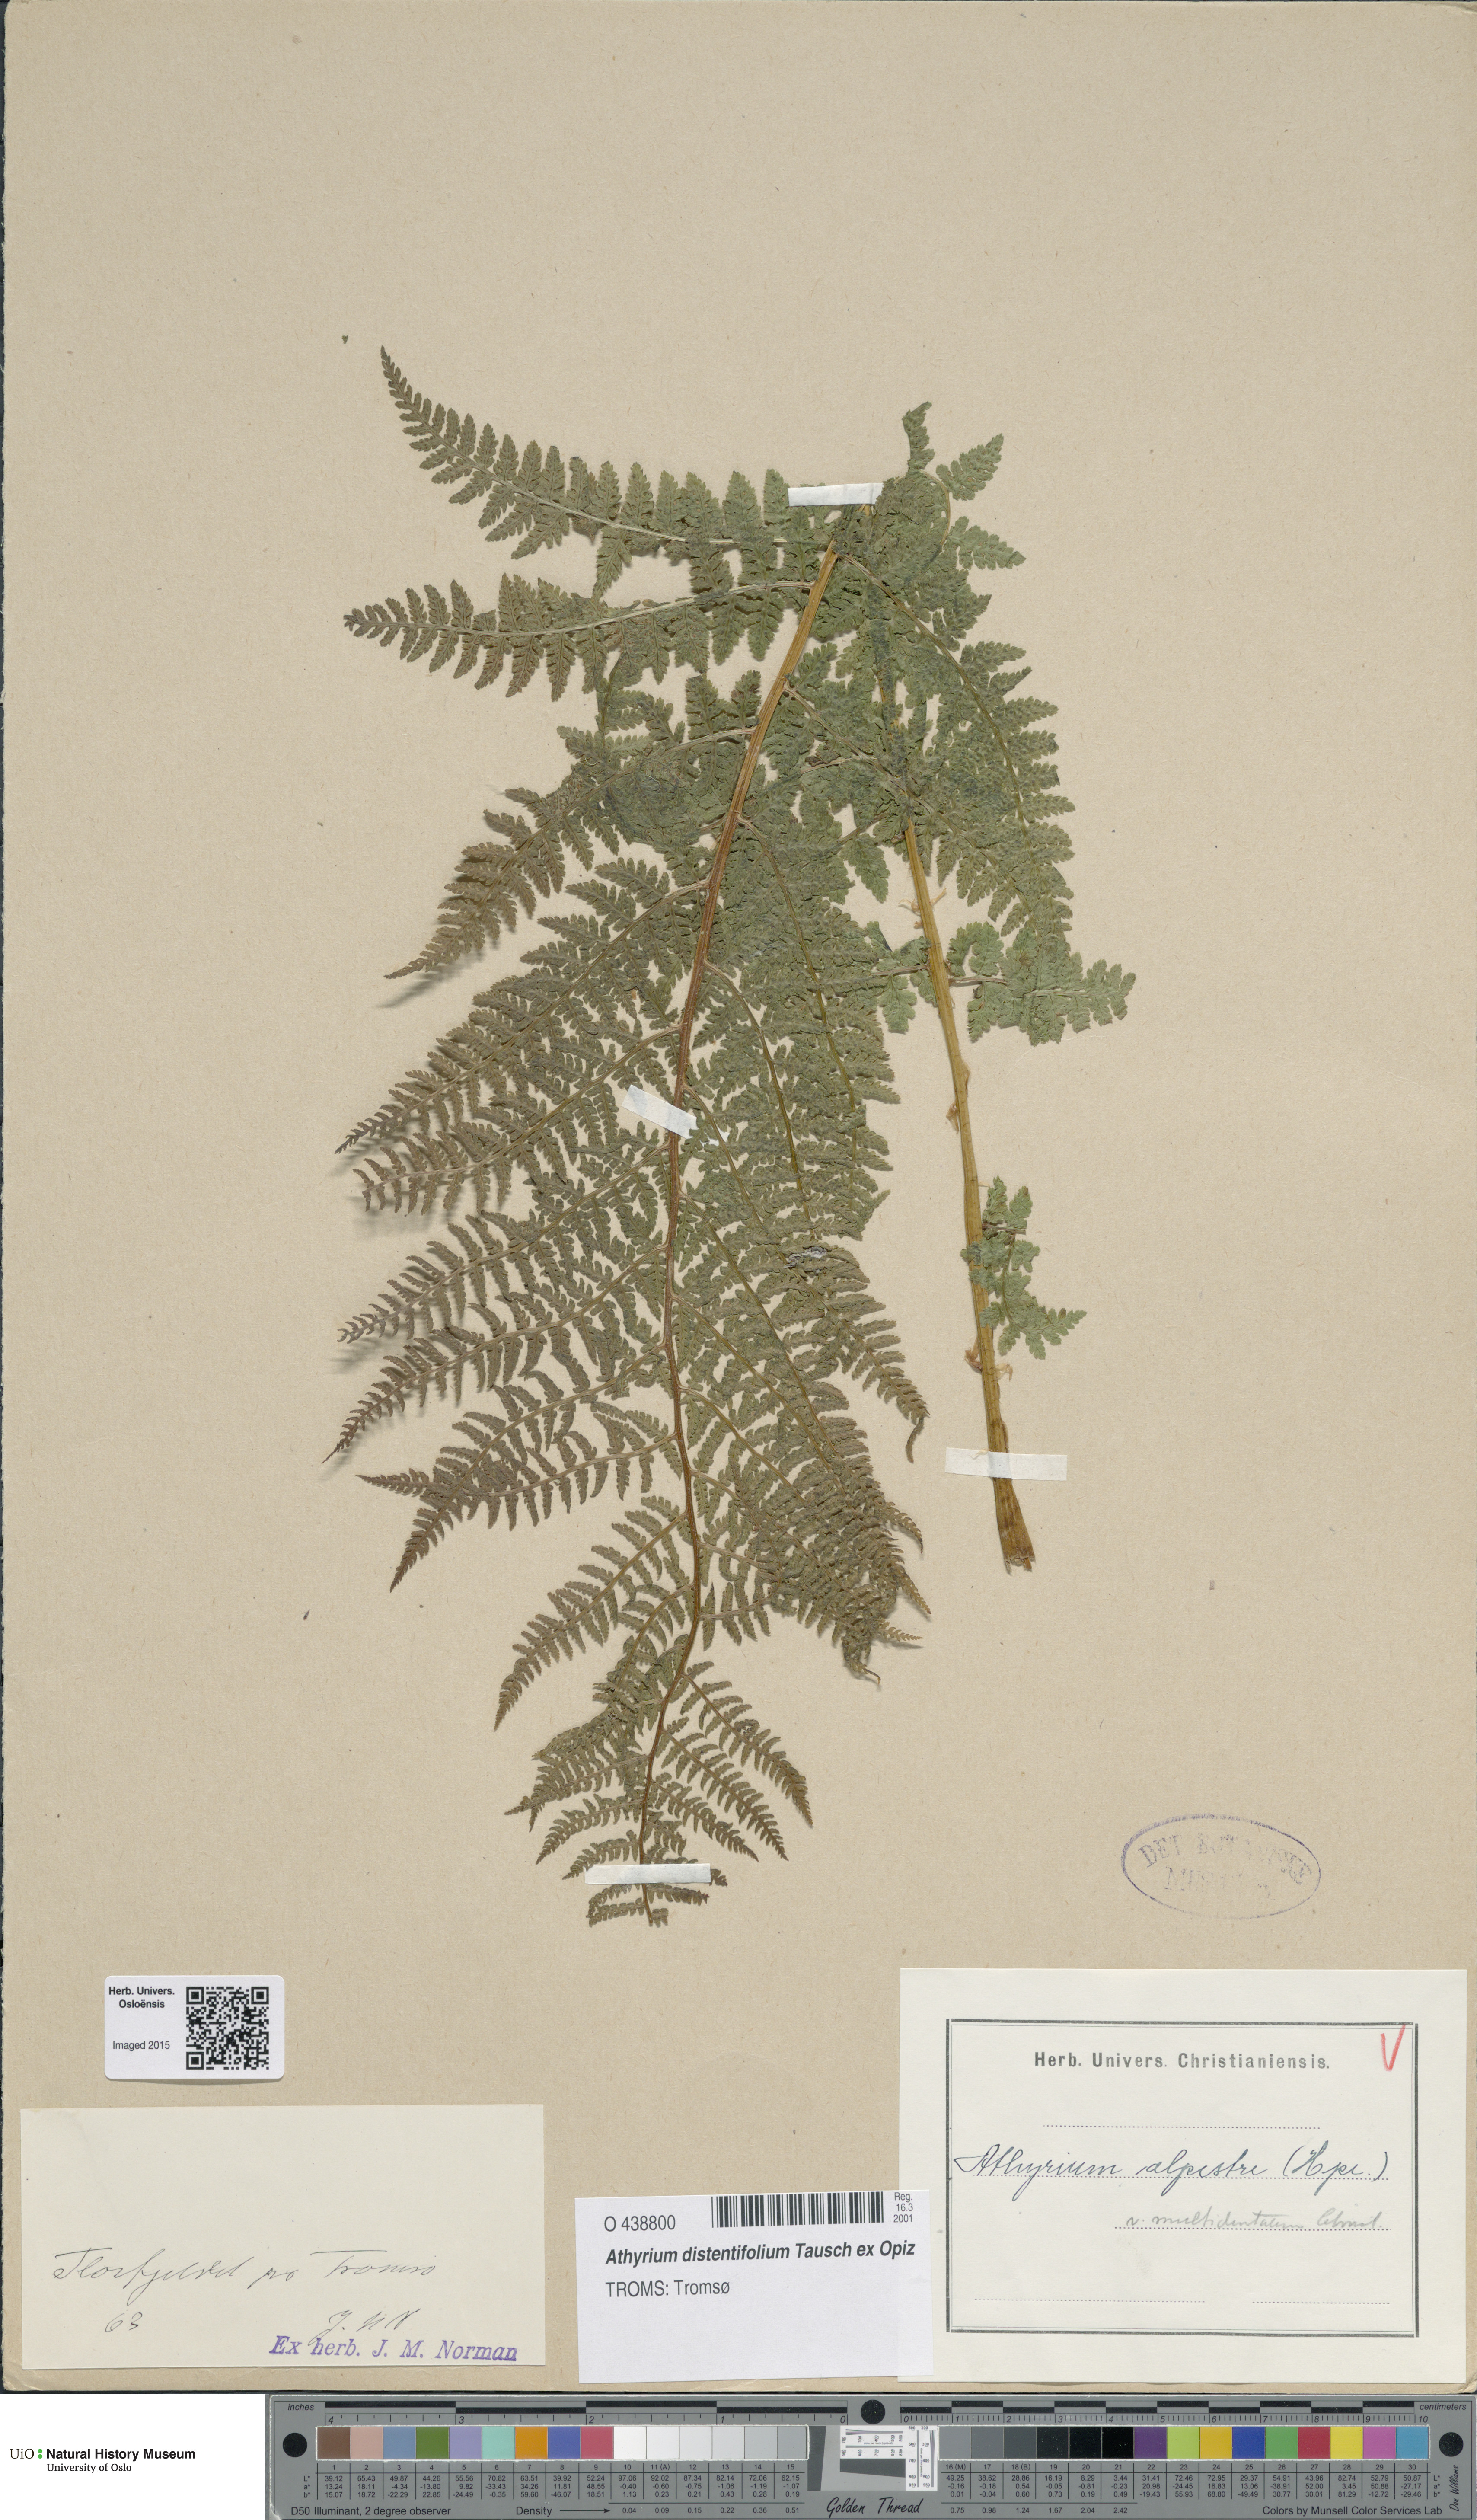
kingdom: Plantae
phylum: Tracheophyta
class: Polypodiopsida
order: Polypodiales
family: Athyriaceae
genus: Pseudathyrium
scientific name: Pseudathyrium alpestre
